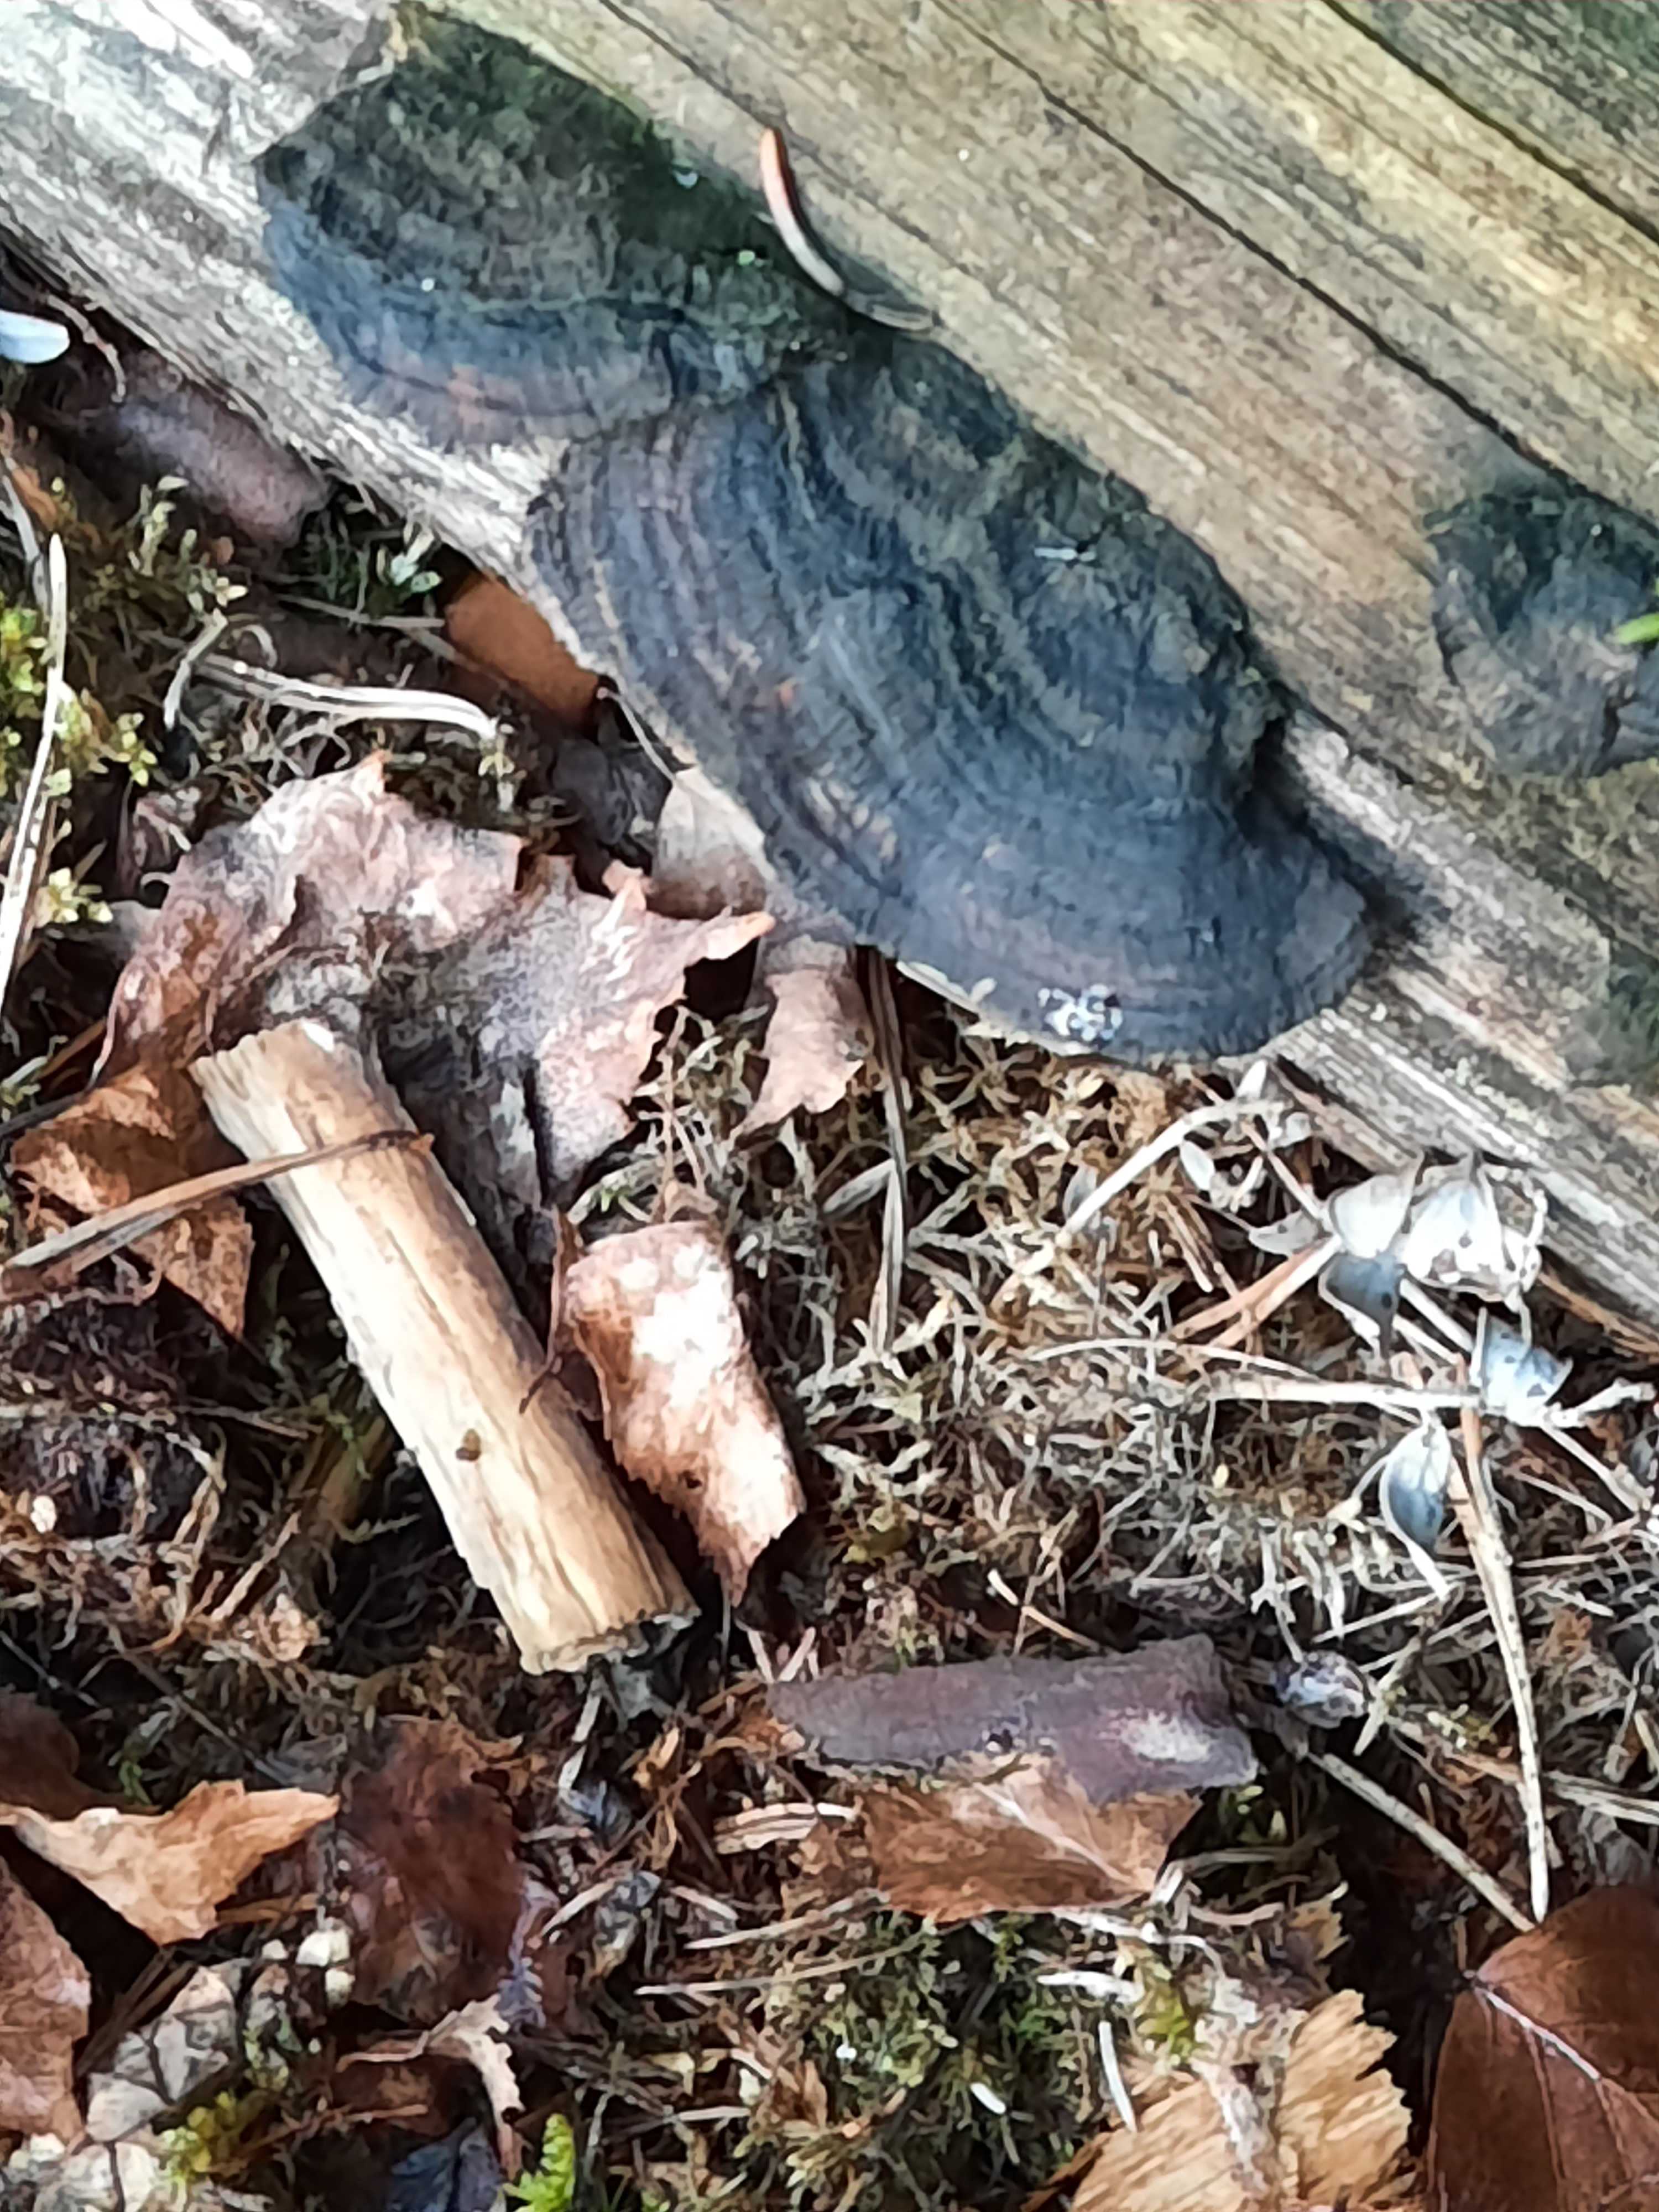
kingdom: Fungi
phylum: Basidiomycota
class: Agaricomycetes
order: Gloeophyllales
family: Gloeophyllaceae
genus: Gloeophyllum
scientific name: Gloeophyllum sepiarium
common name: fyrre-korkhat
